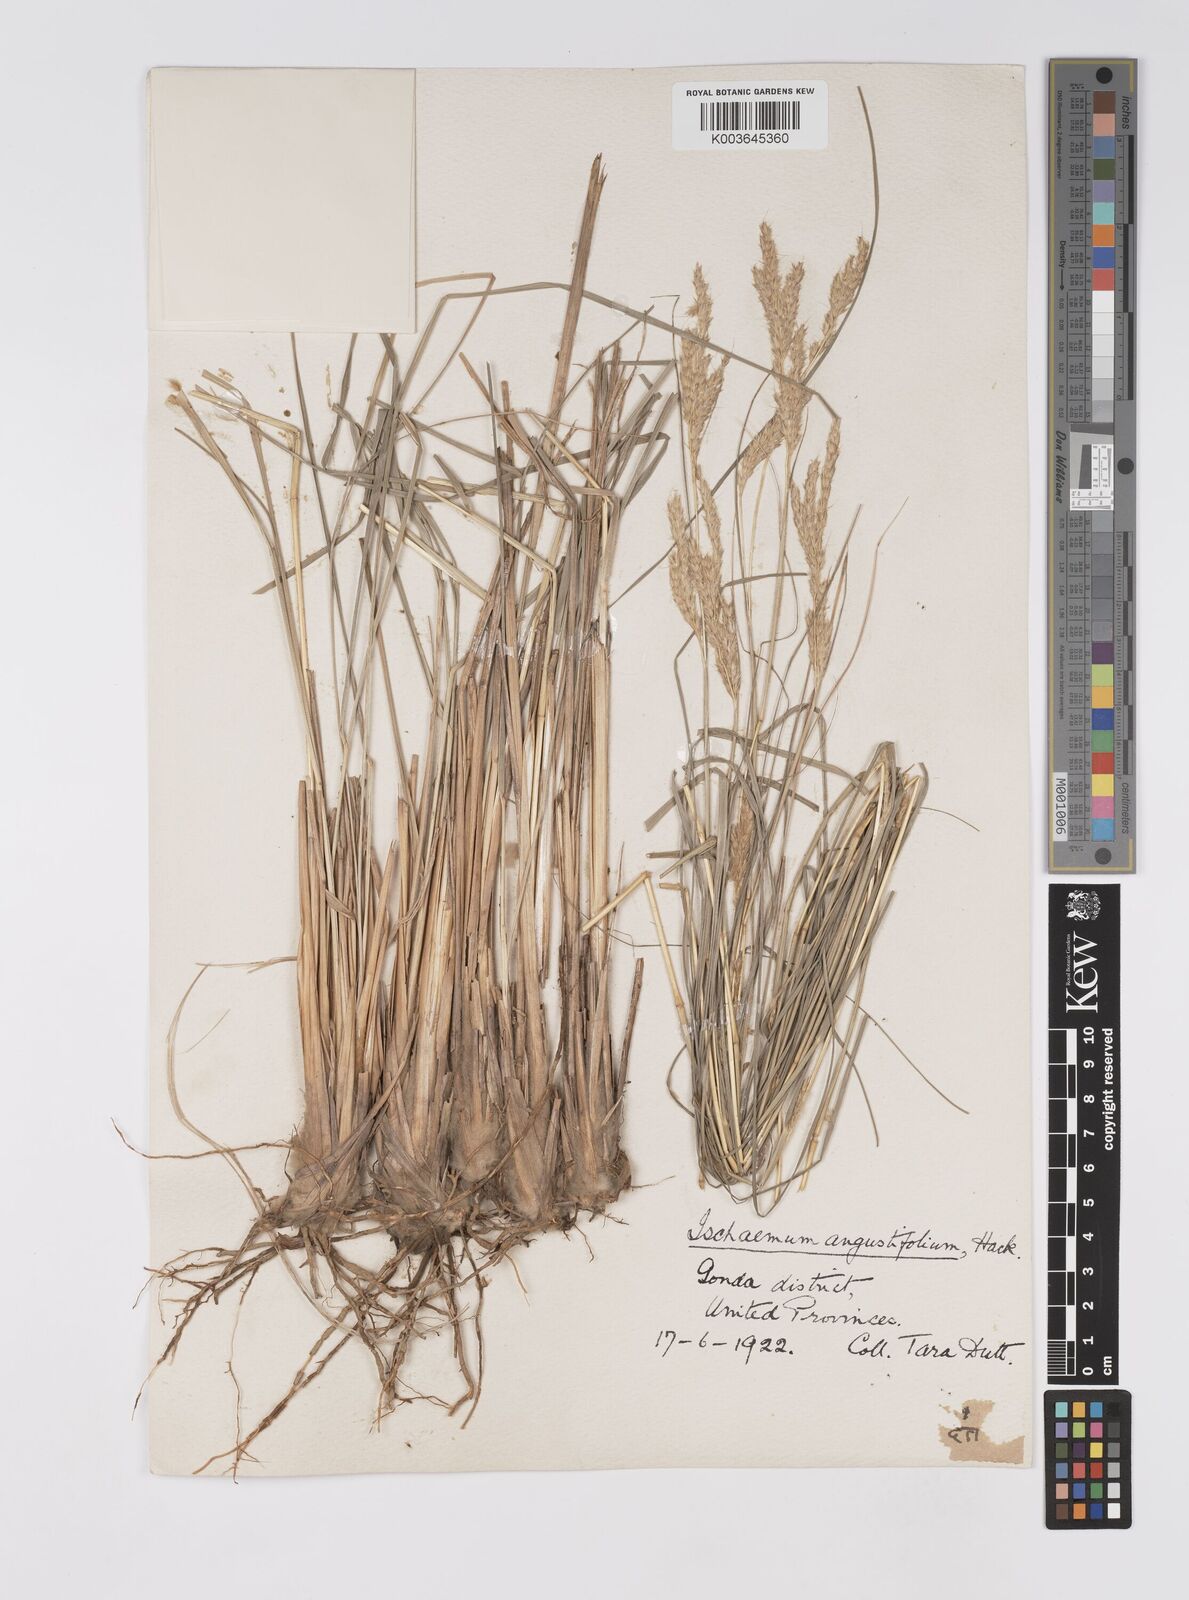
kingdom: Plantae
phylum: Tracheophyta
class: Liliopsida
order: Poales
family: Poaceae
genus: Eulaliopsis
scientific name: Eulaliopsis binata
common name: Baib grass
